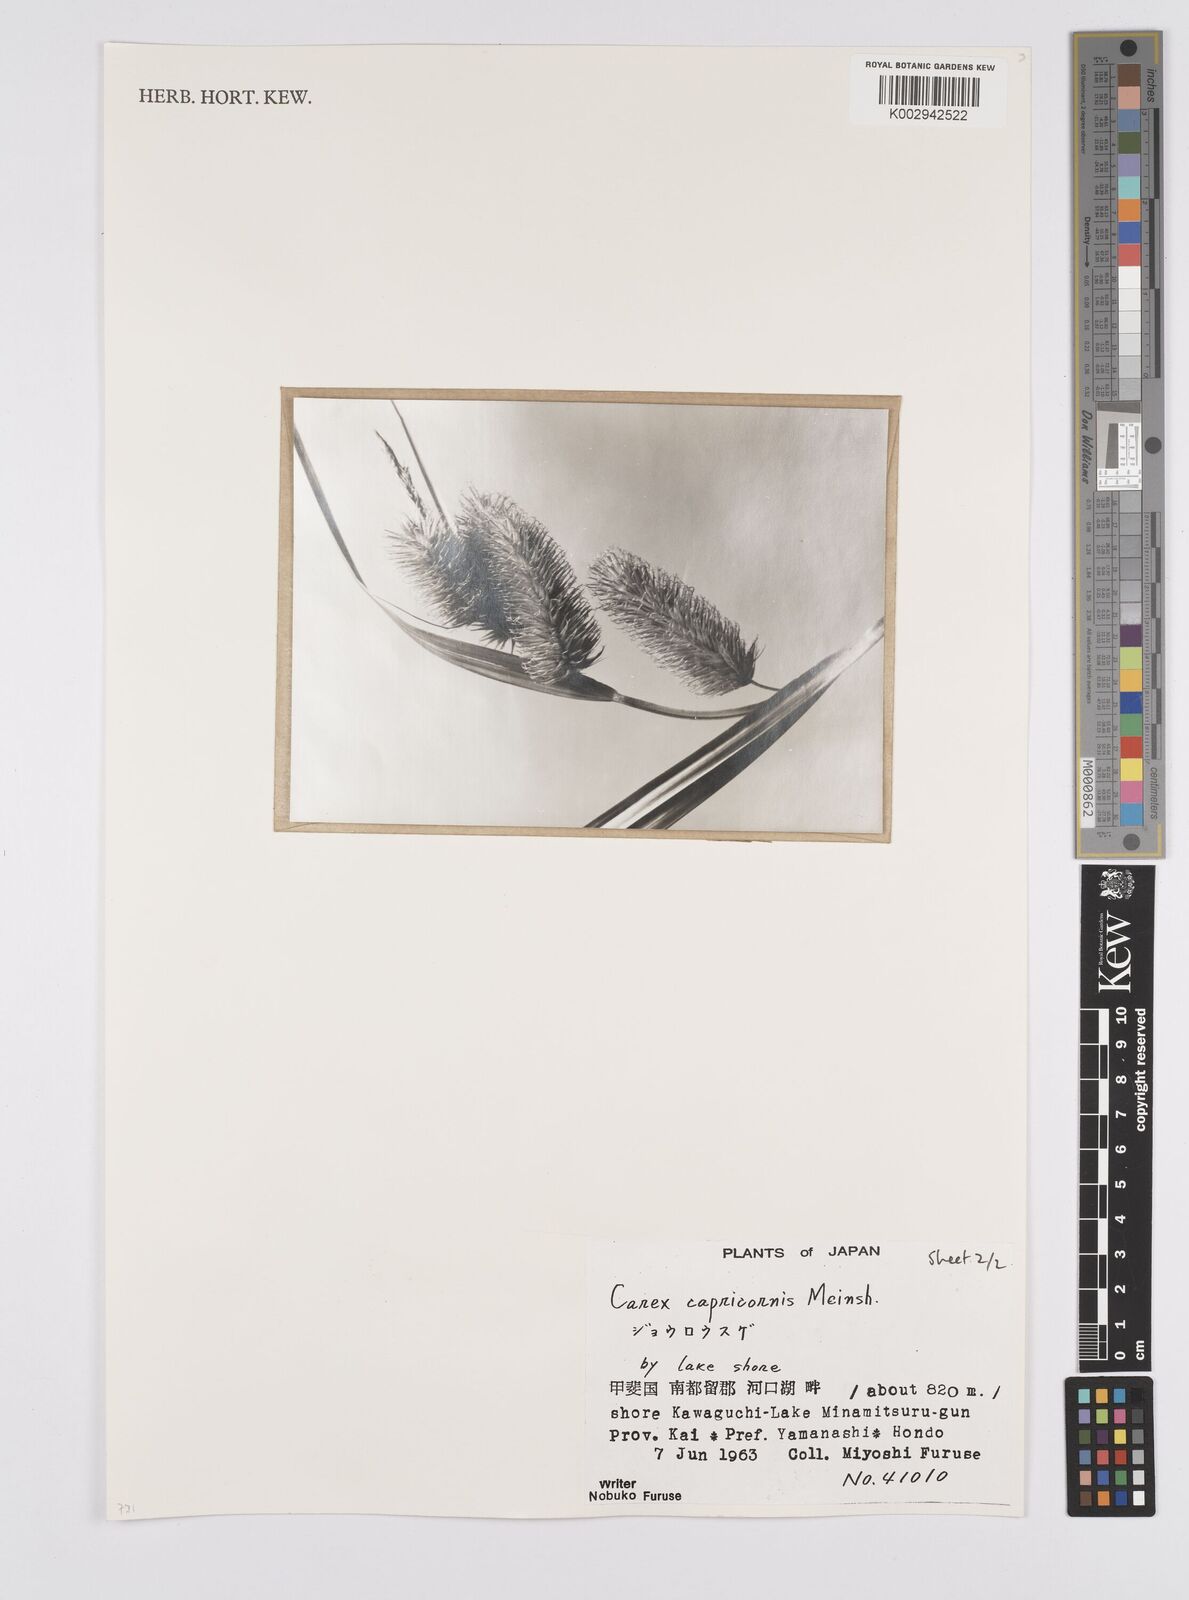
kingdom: Plantae
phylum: Tracheophyta
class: Liliopsida
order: Poales
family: Cyperaceae
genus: Carex
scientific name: Carex capricornis
